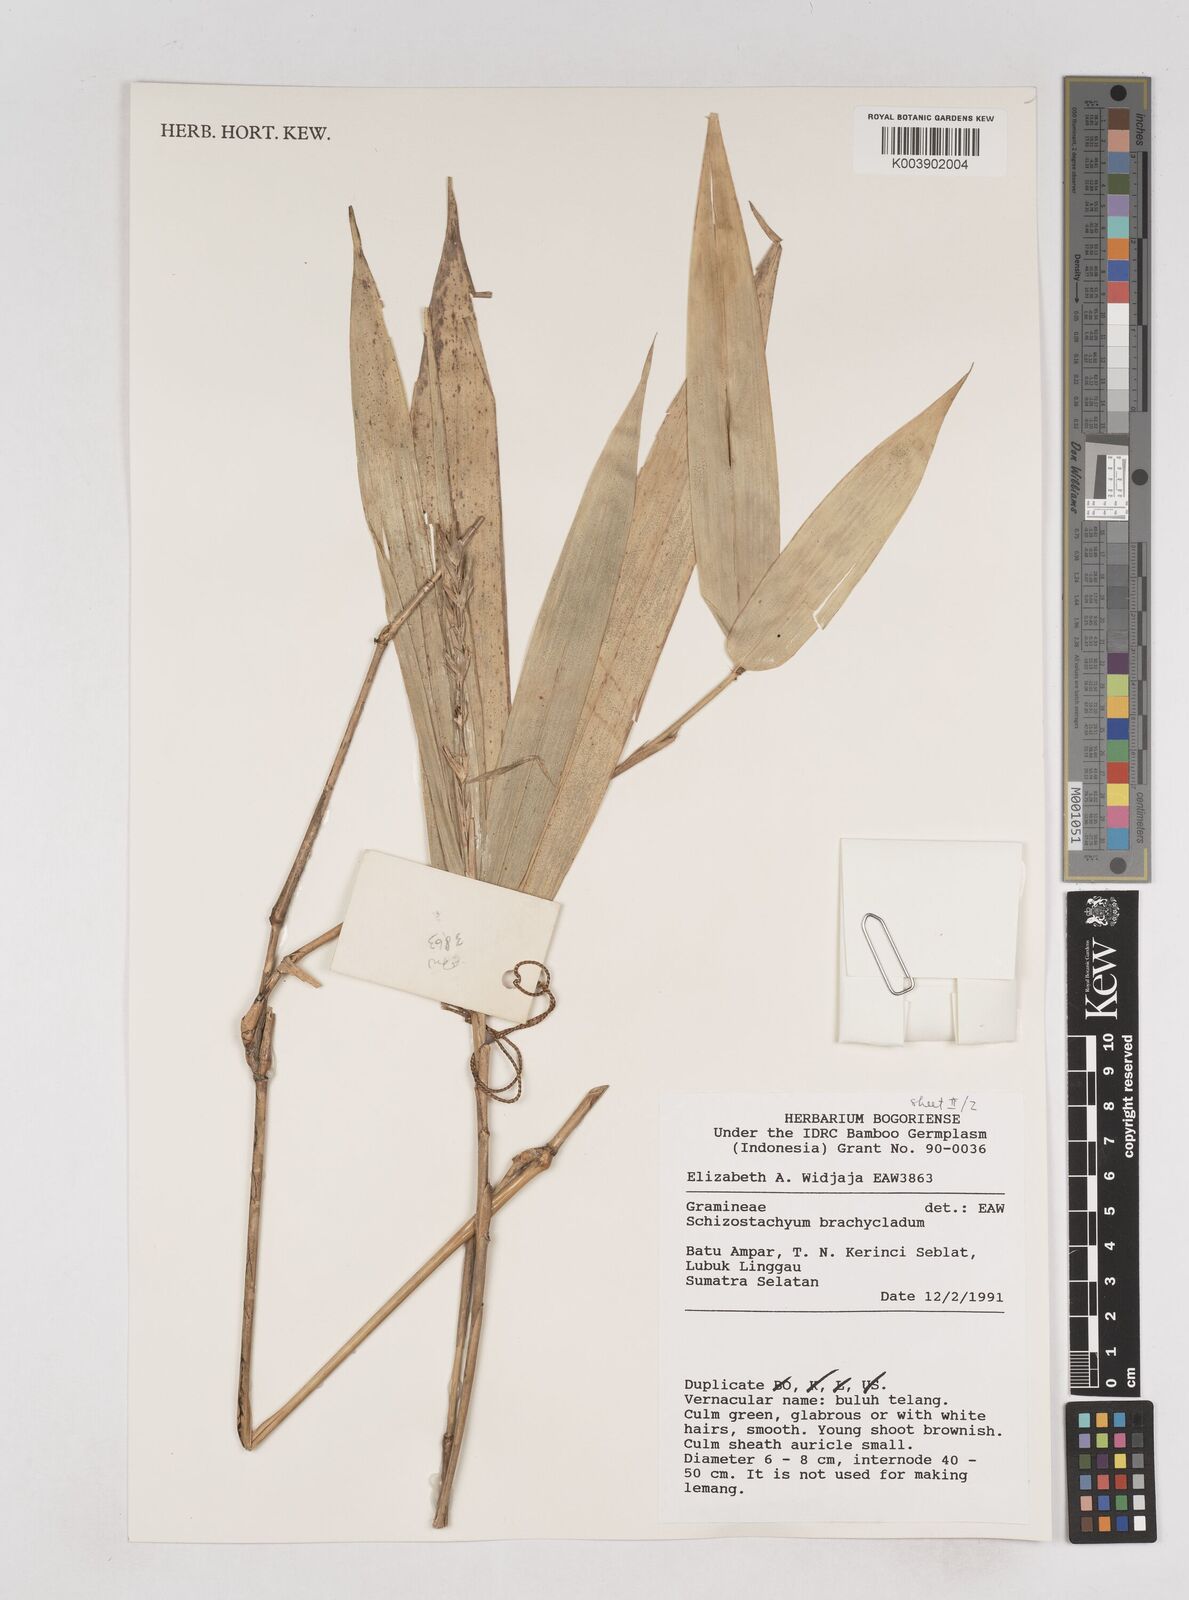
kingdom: Plantae
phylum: Tracheophyta
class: Liliopsida
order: Poales
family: Poaceae
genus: Schizostachyum
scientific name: Schizostachyum brachycladum
